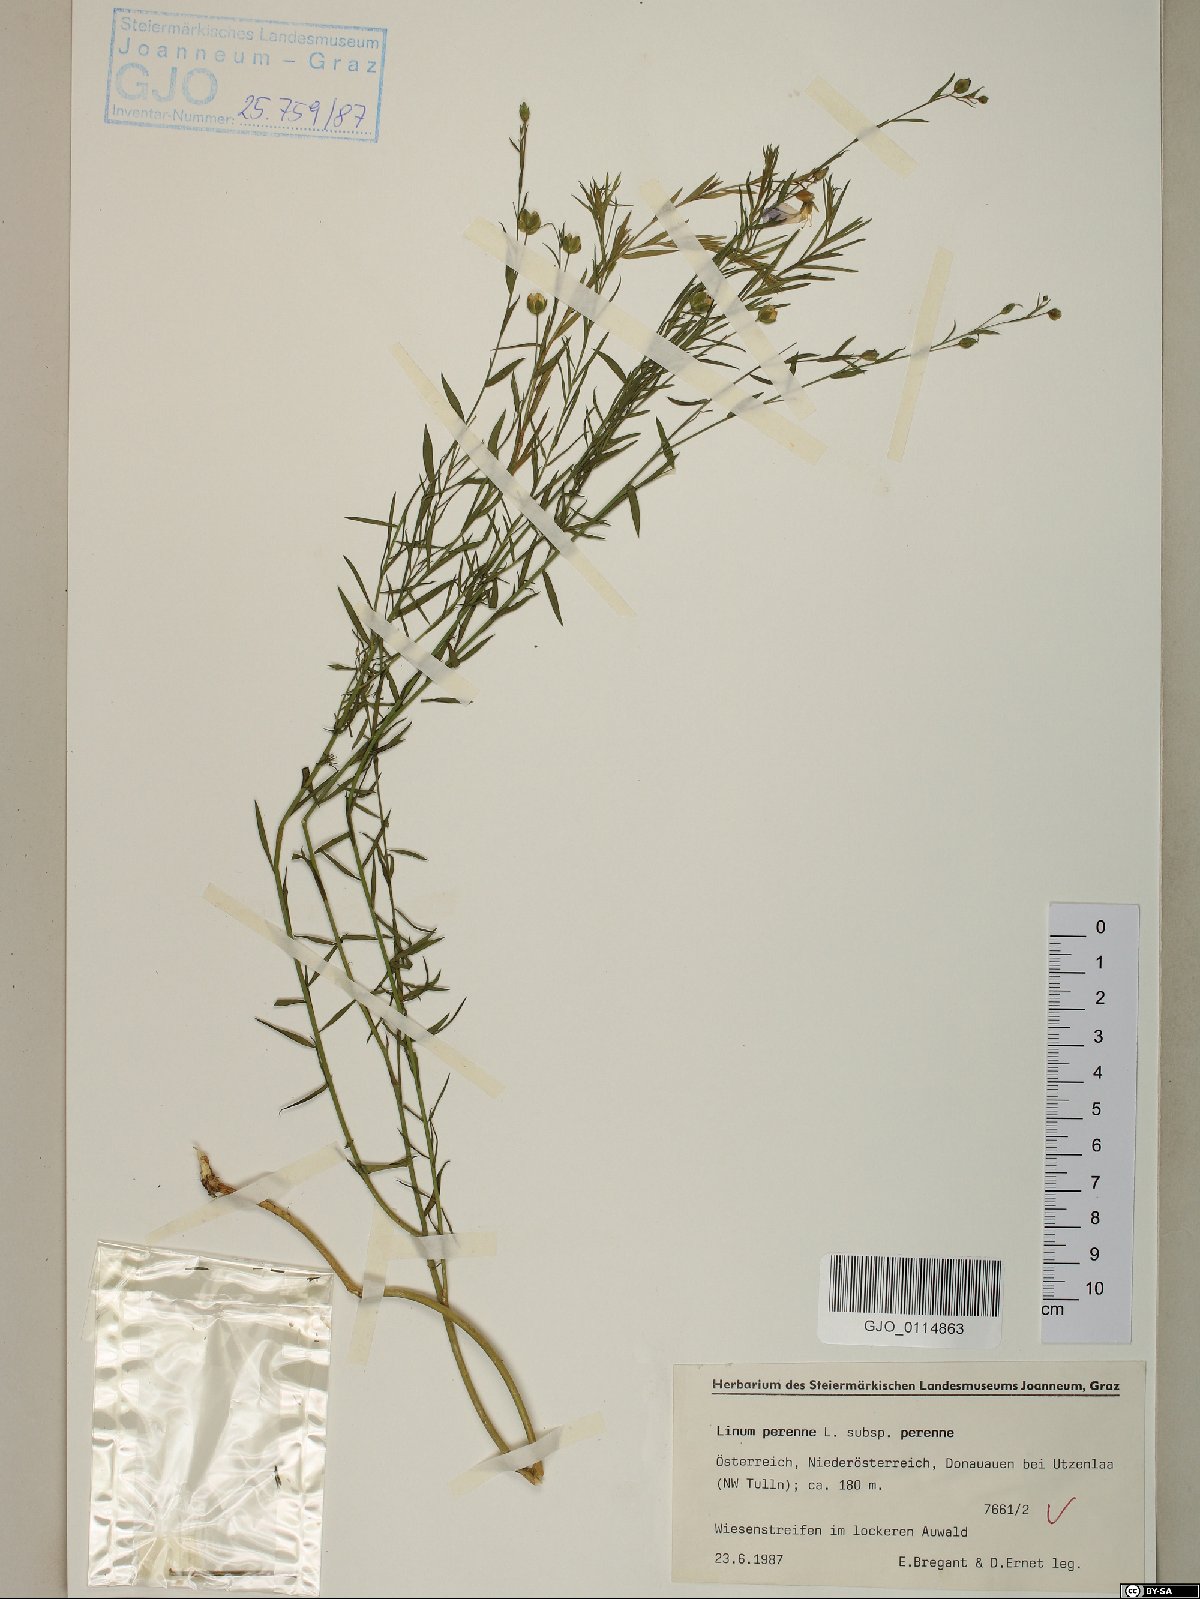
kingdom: Plantae
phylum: Tracheophyta
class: Magnoliopsida
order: Malpighiales
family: Linaceae
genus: Linum
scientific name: Linum perenne
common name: Blue flax
